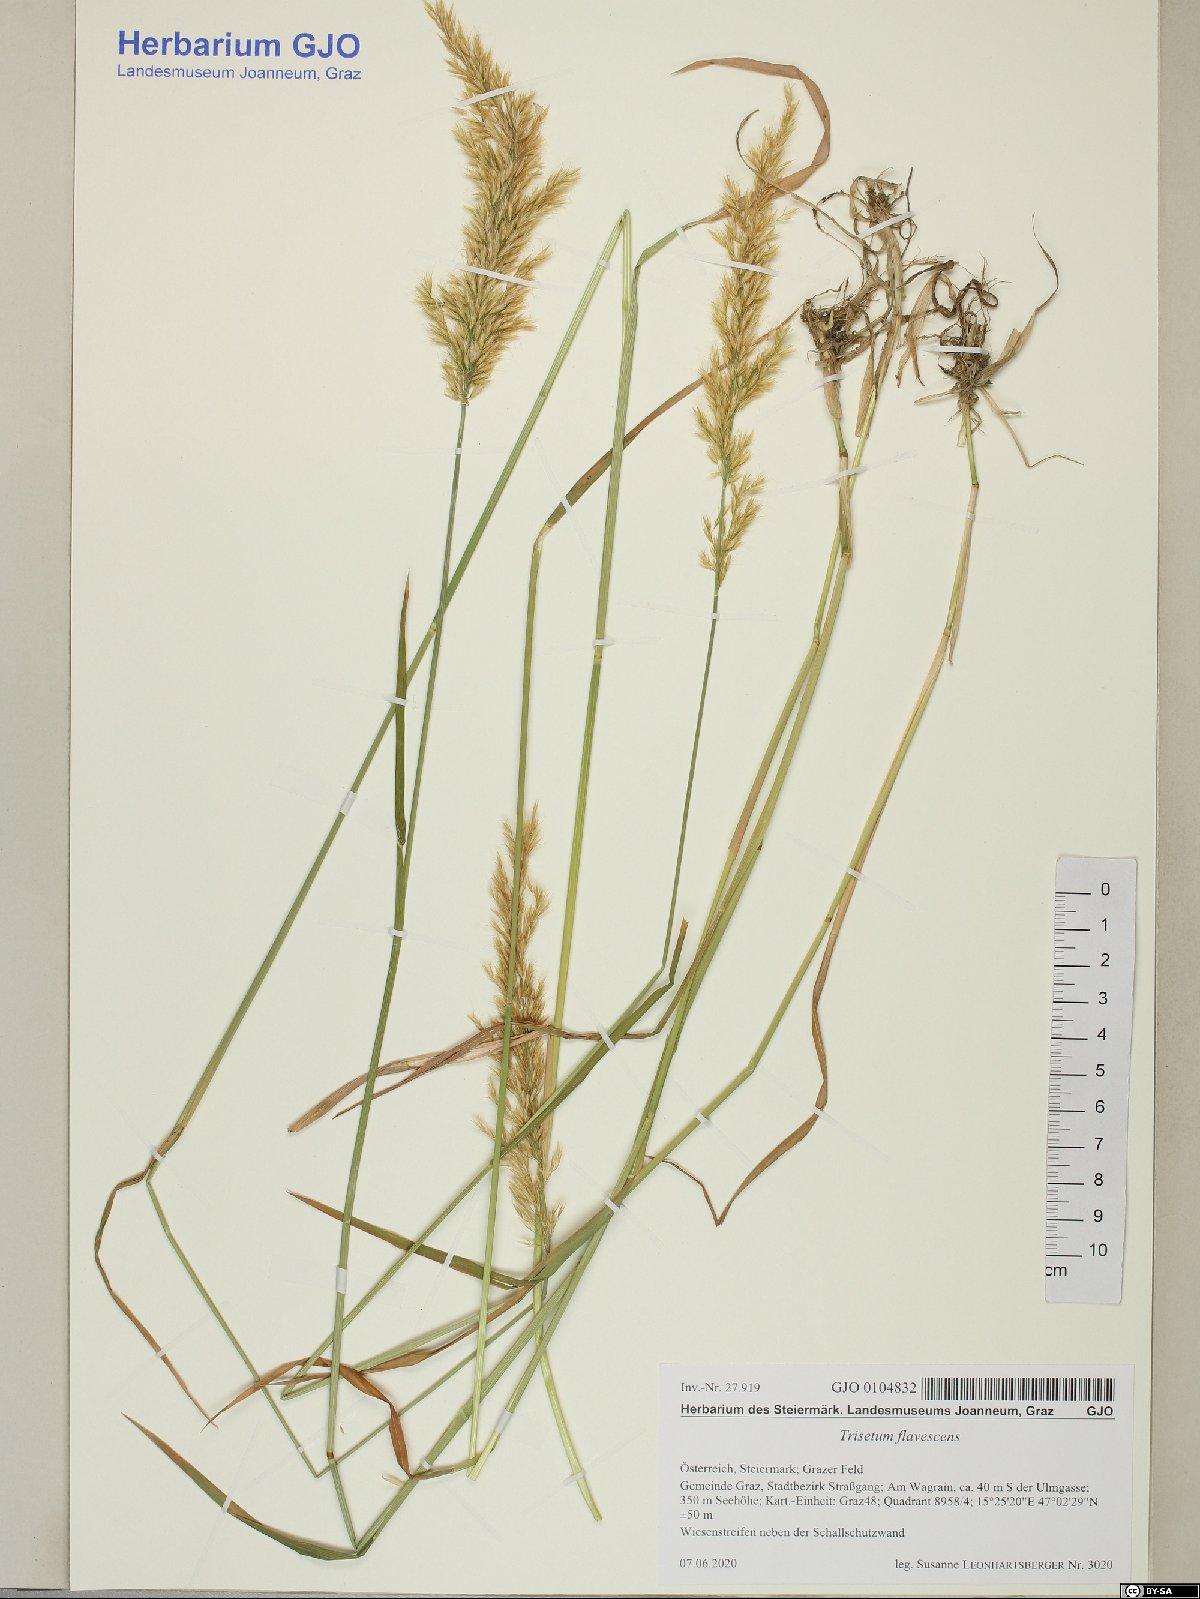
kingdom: Plantae
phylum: Tracheophyta
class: Liliopsida
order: Poales
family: Poaceae
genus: Trisetum
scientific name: Trisetum flavescens
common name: Yellow oat-grass
